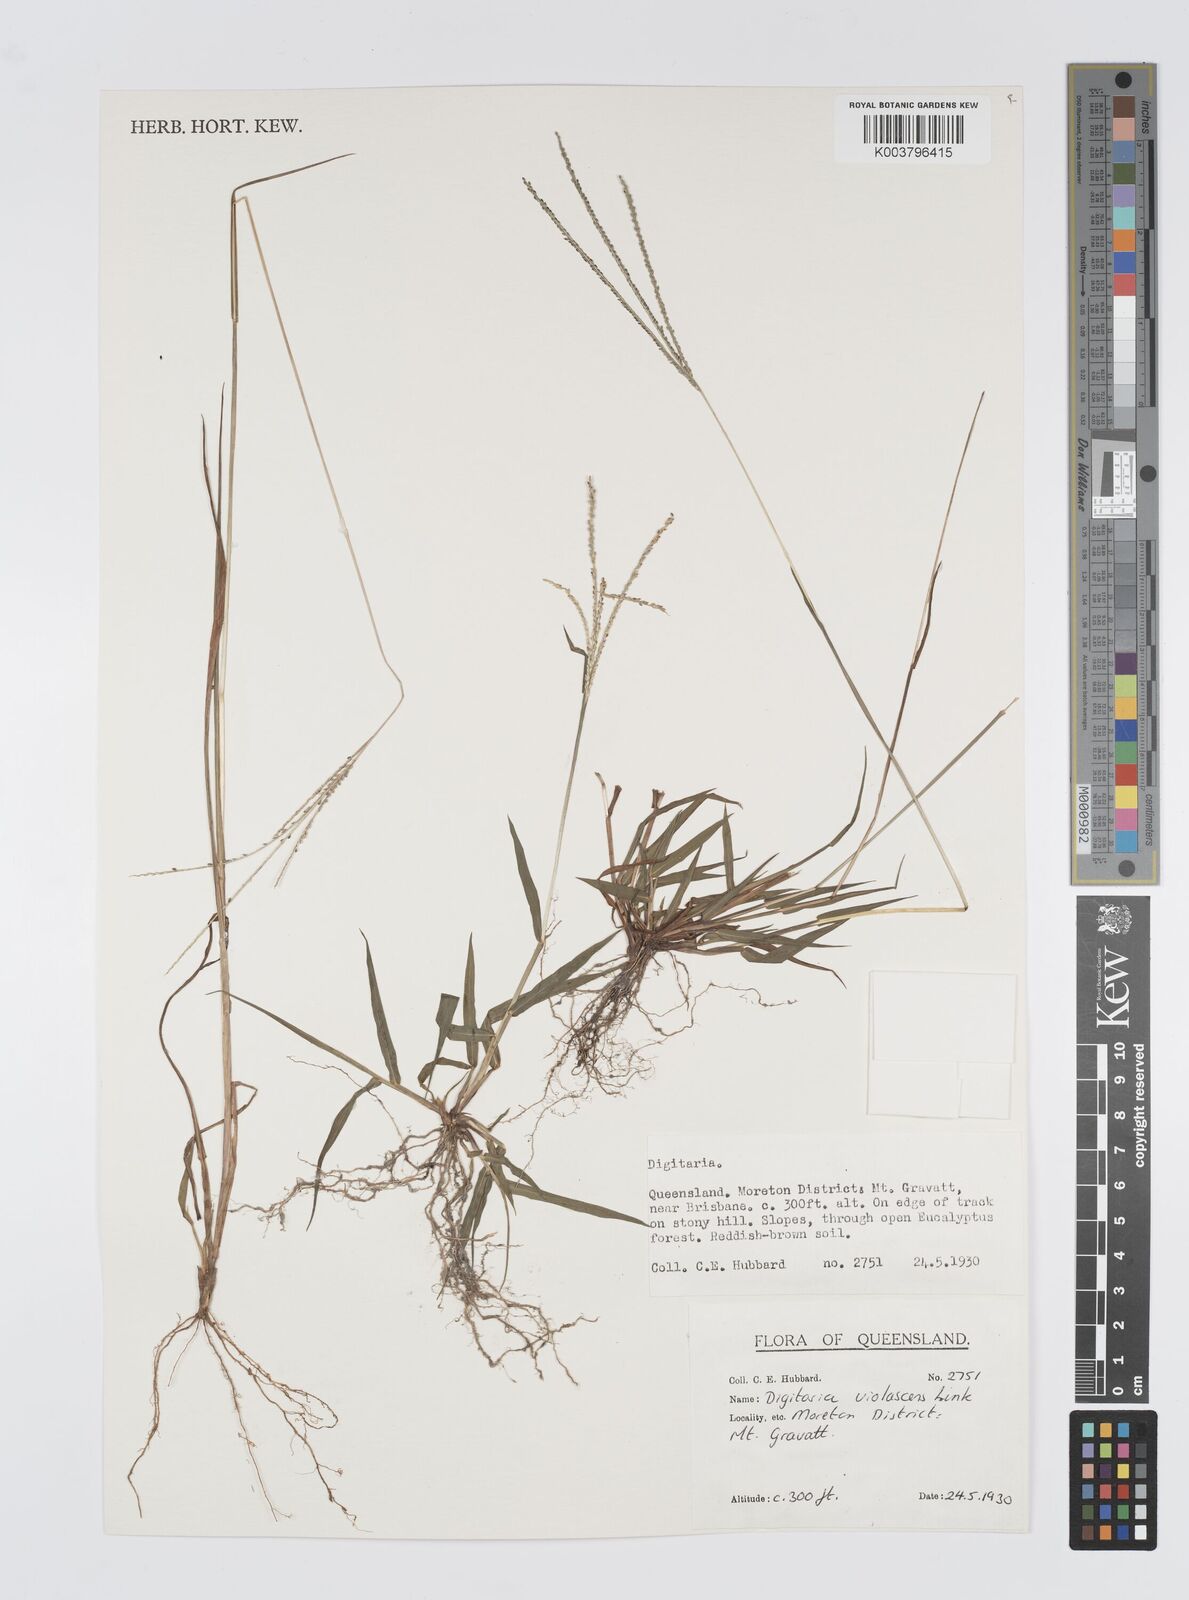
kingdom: Plantae
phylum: Tracheophyta
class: Liliopsida
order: Poales
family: Poaceae
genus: Digitaria
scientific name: Digitaria violascens
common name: Violet crabgrass
